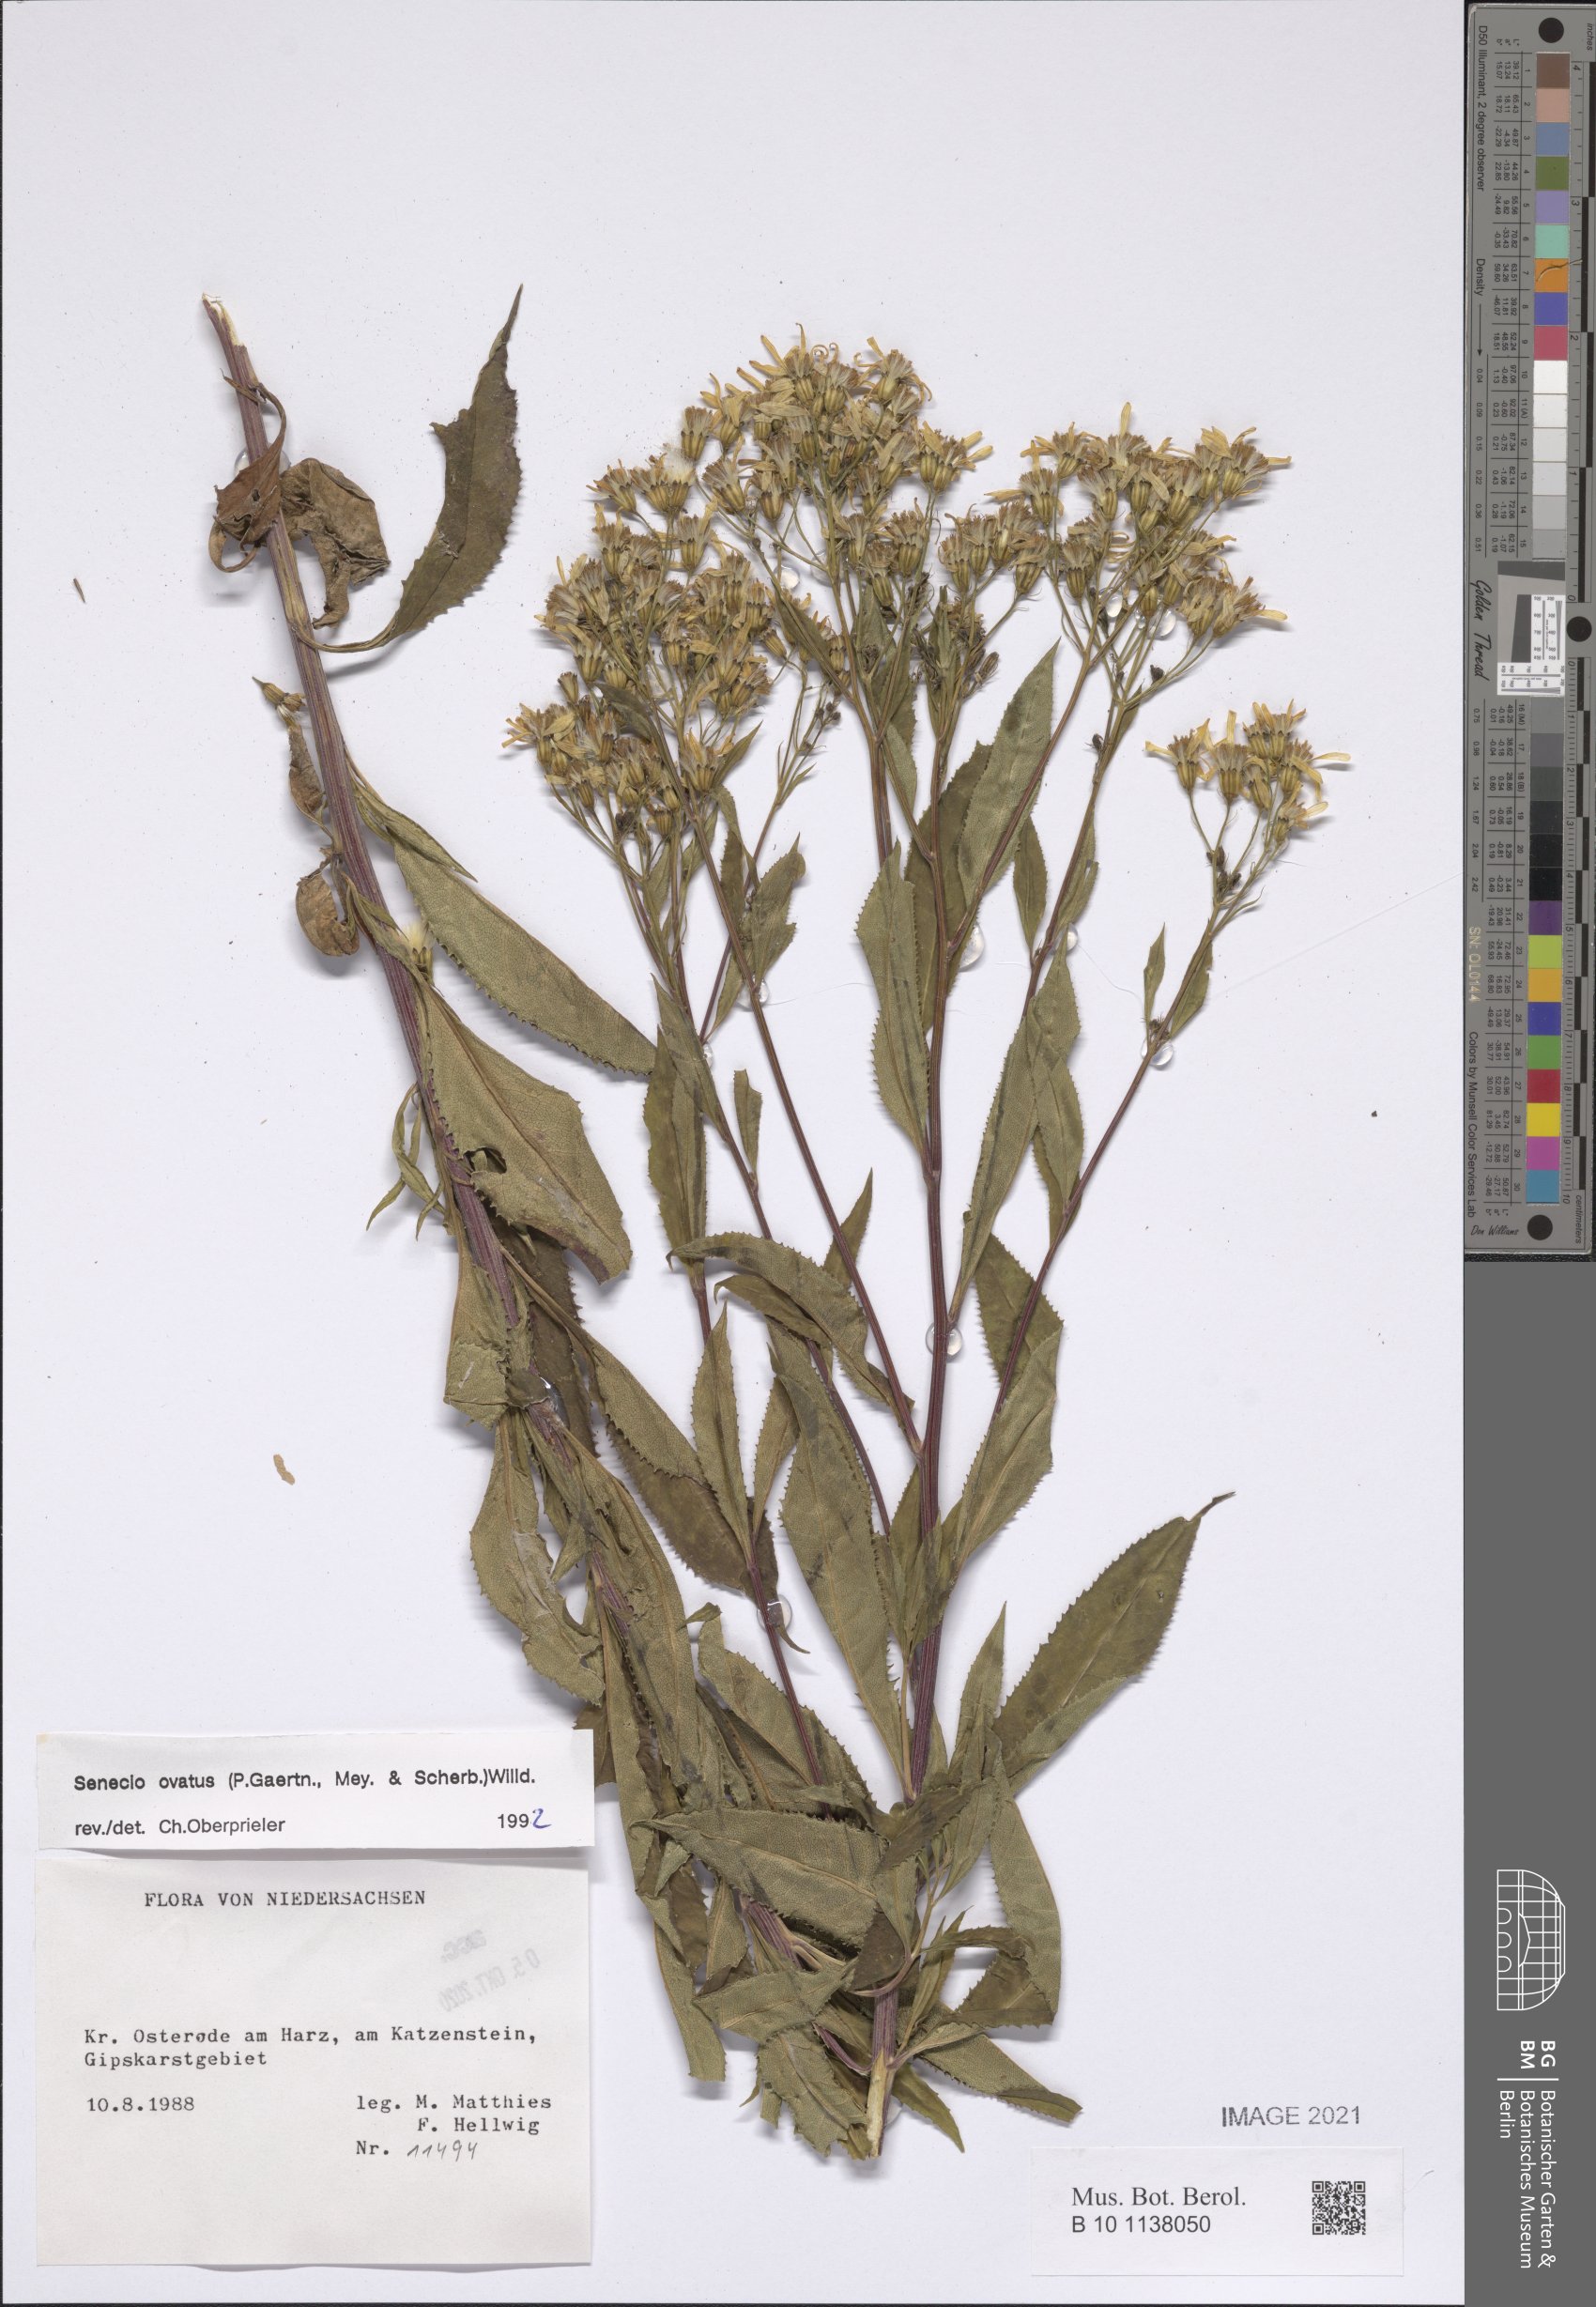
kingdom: Plantae
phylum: Tracheophyta
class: Magnoliopsida
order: Asterales
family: Asteraceae
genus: Senecio
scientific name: Senecio ovatus
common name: Wood ragwort
